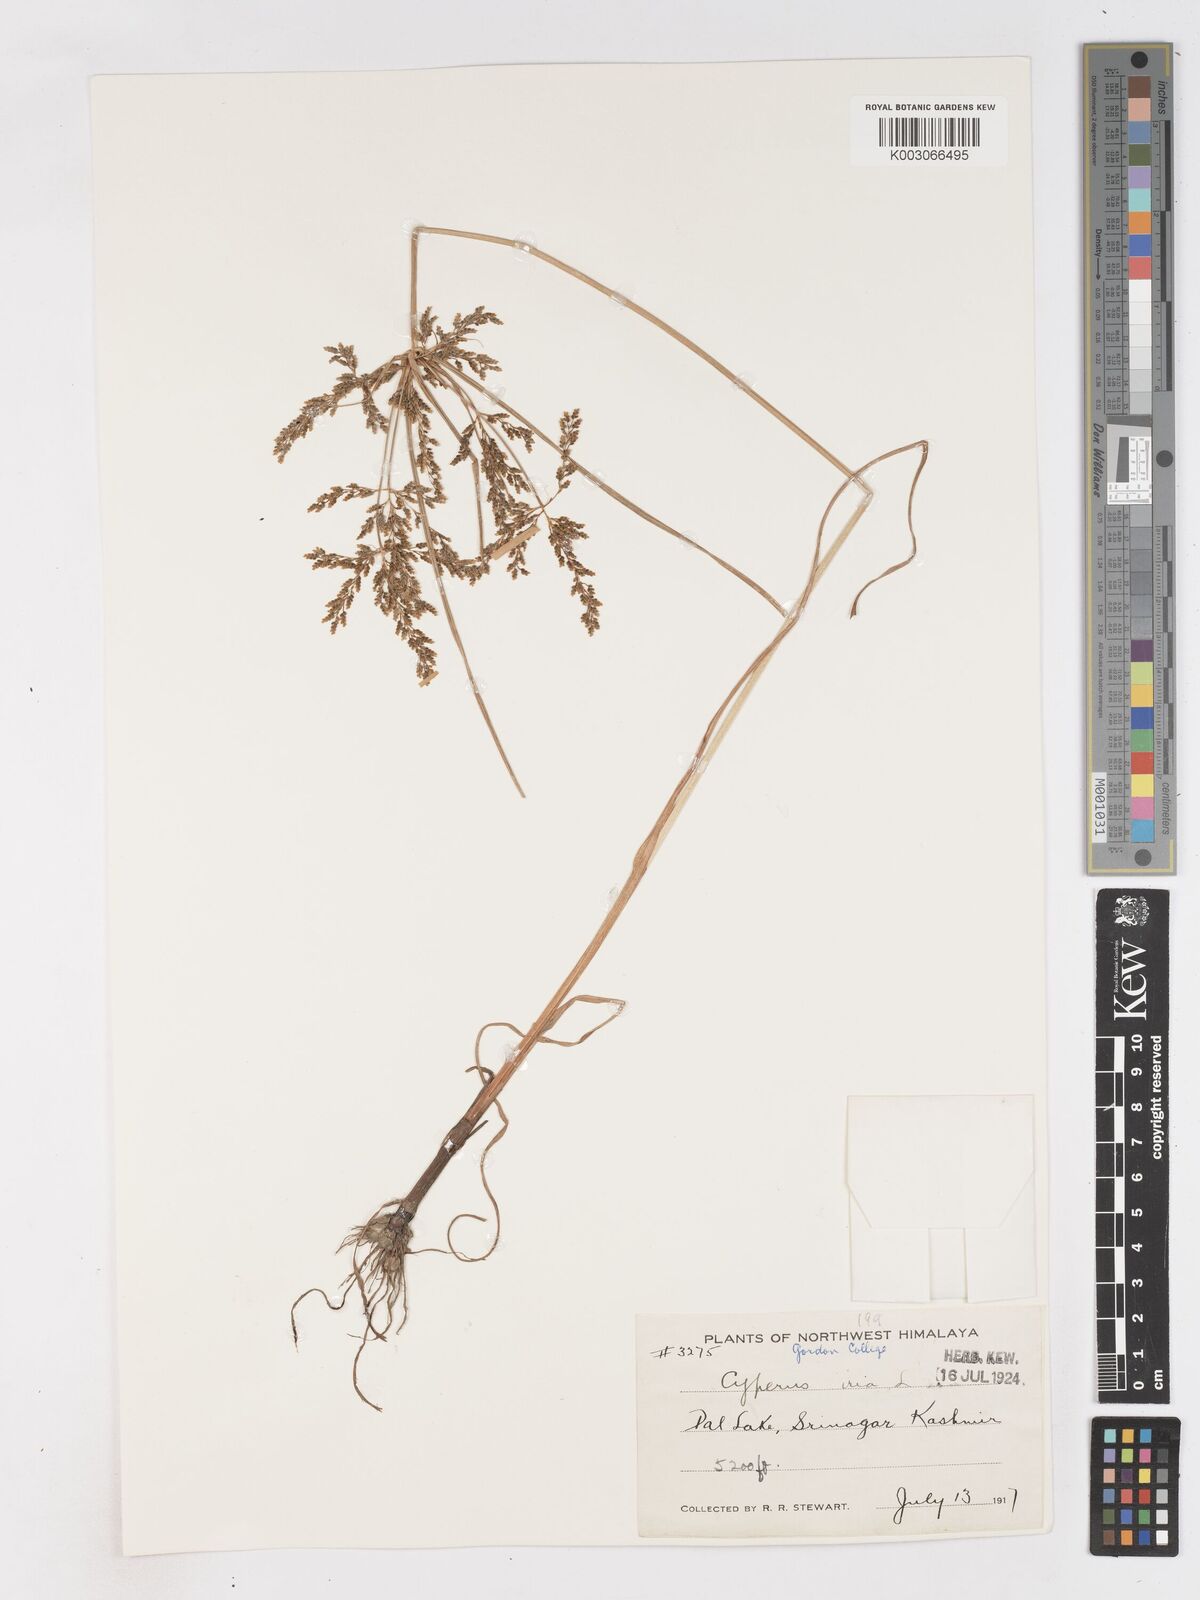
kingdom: Plantae
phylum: Tracheophyta
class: Liliopsida
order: Poales
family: Cyperaceae
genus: Cyperus
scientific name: Cyperus iria
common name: Ricefield flatsedge
